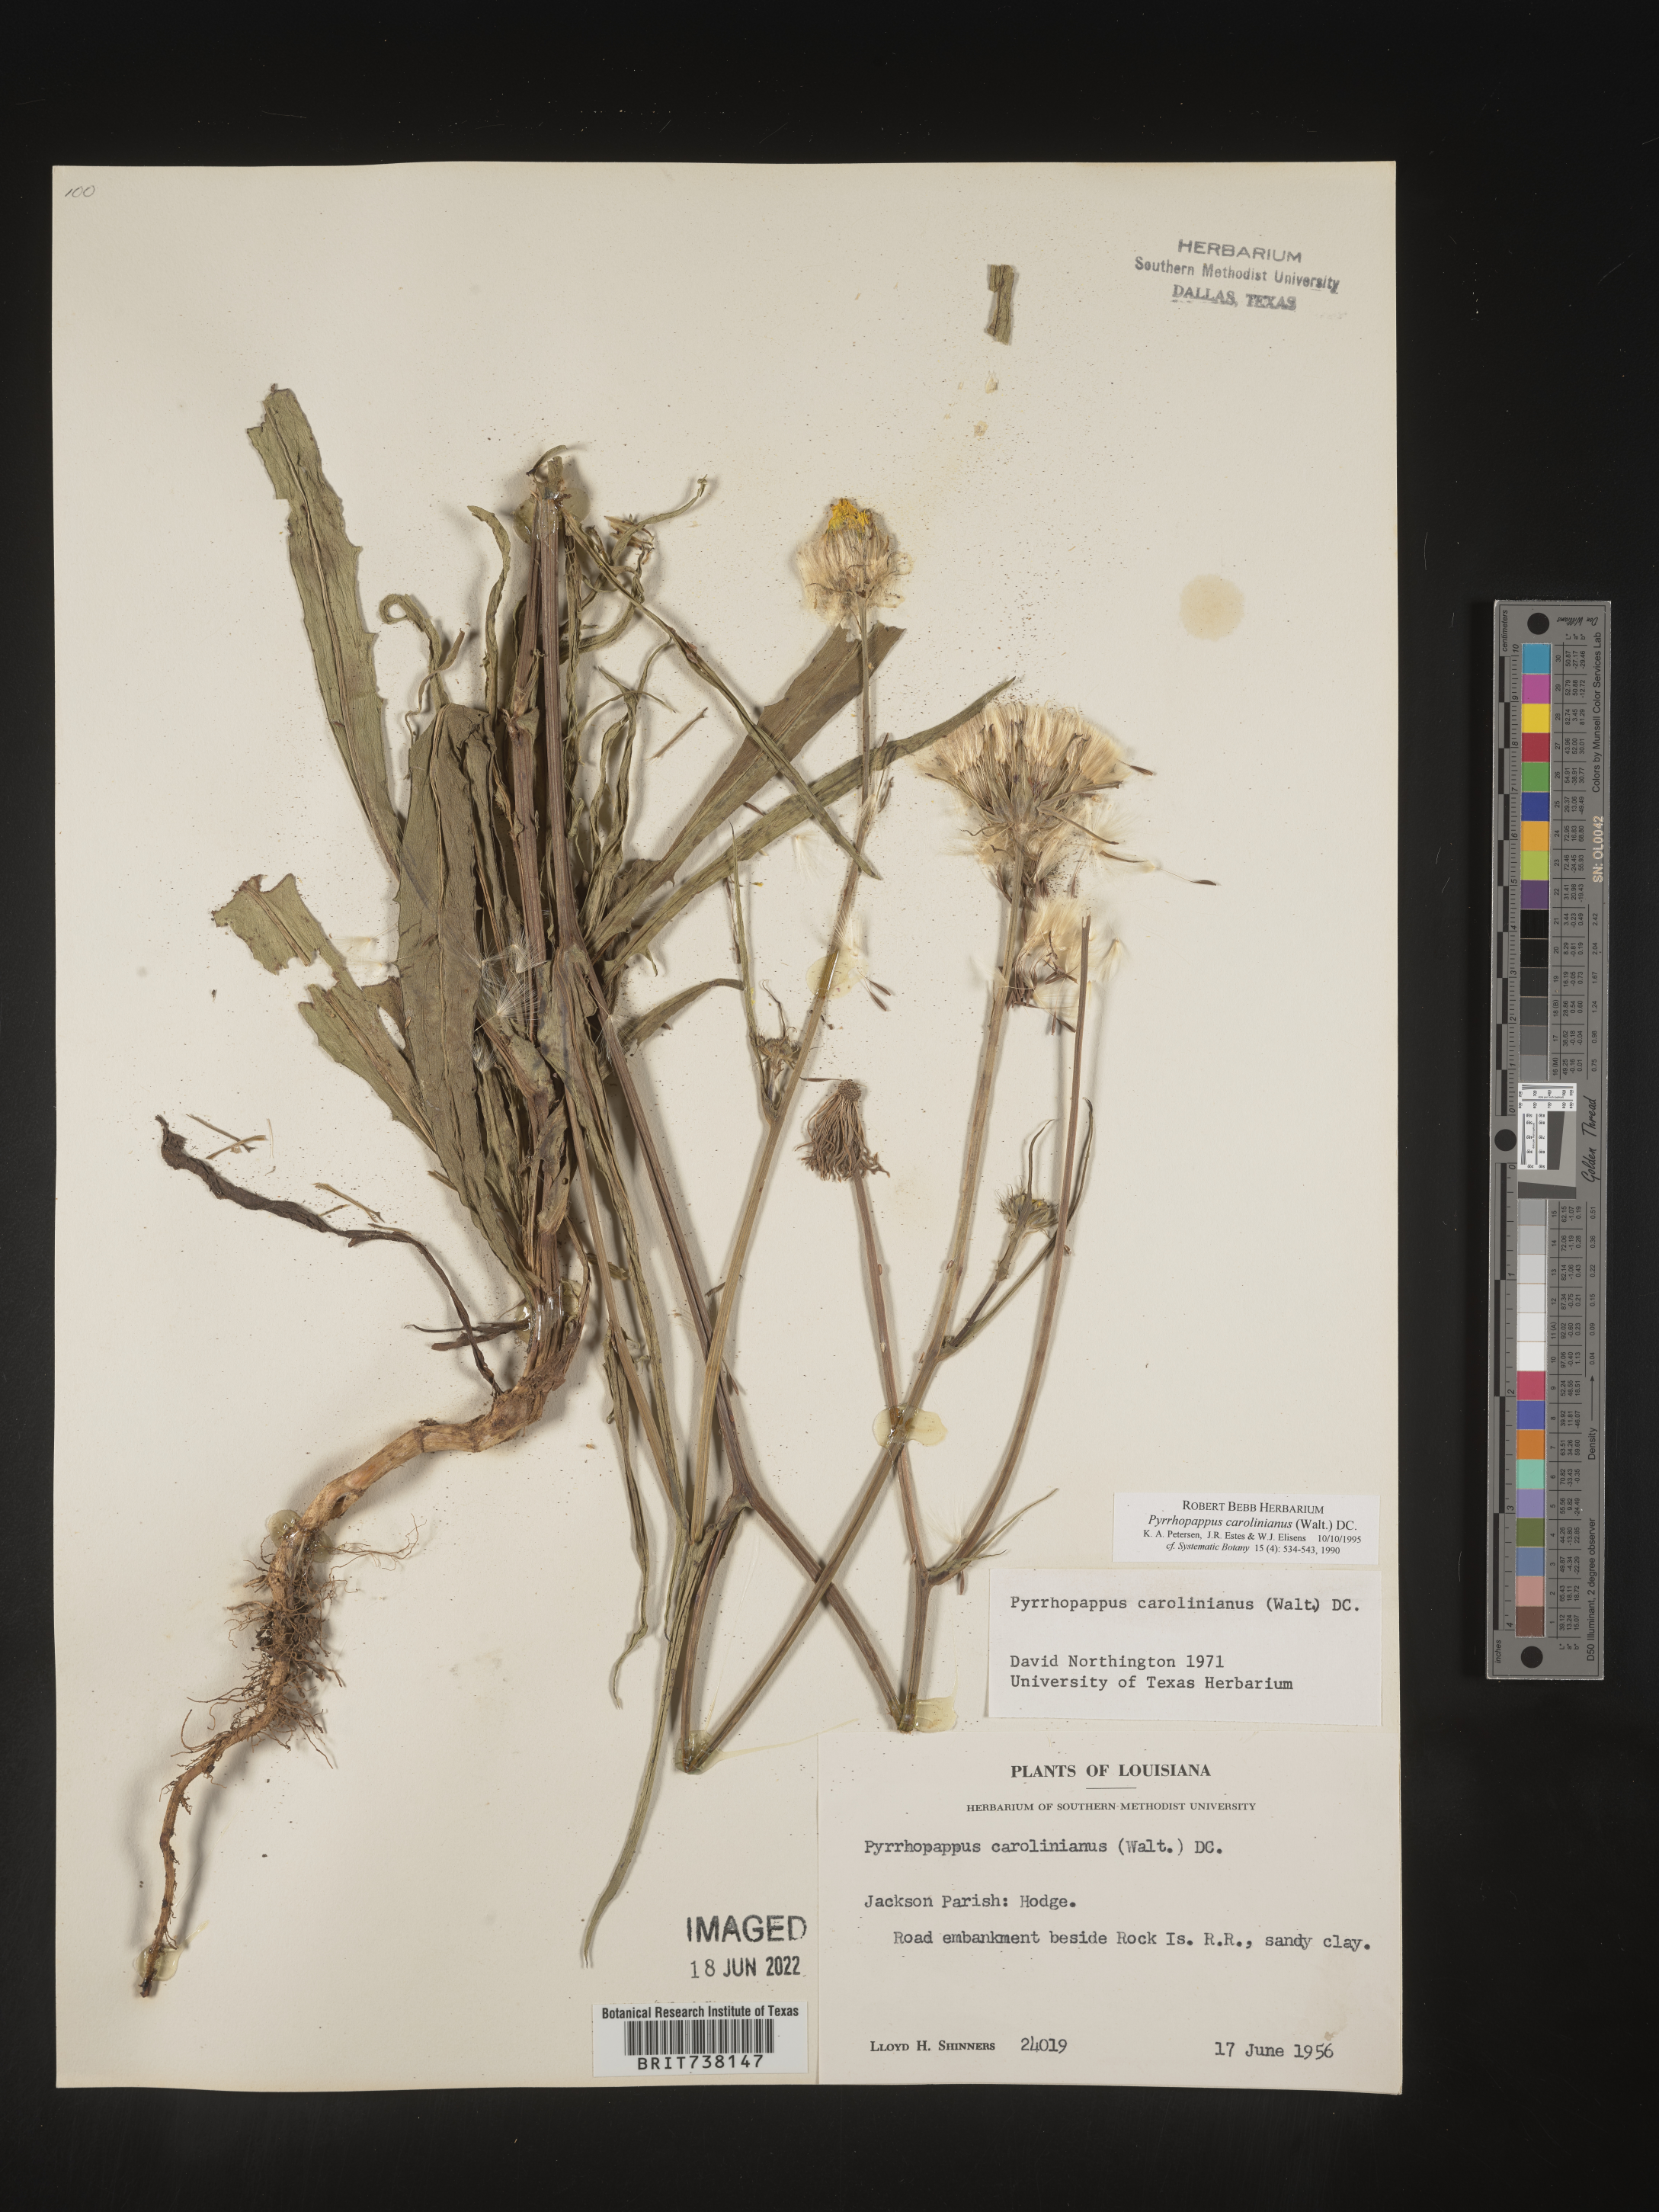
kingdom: Plantae
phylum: Tracheophyta
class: Magnoliopsida
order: Asterales
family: Asteraceae
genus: Pyrrhopappus
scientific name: Pyrrhopappus carolinianus
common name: Carolina desert-chicory
